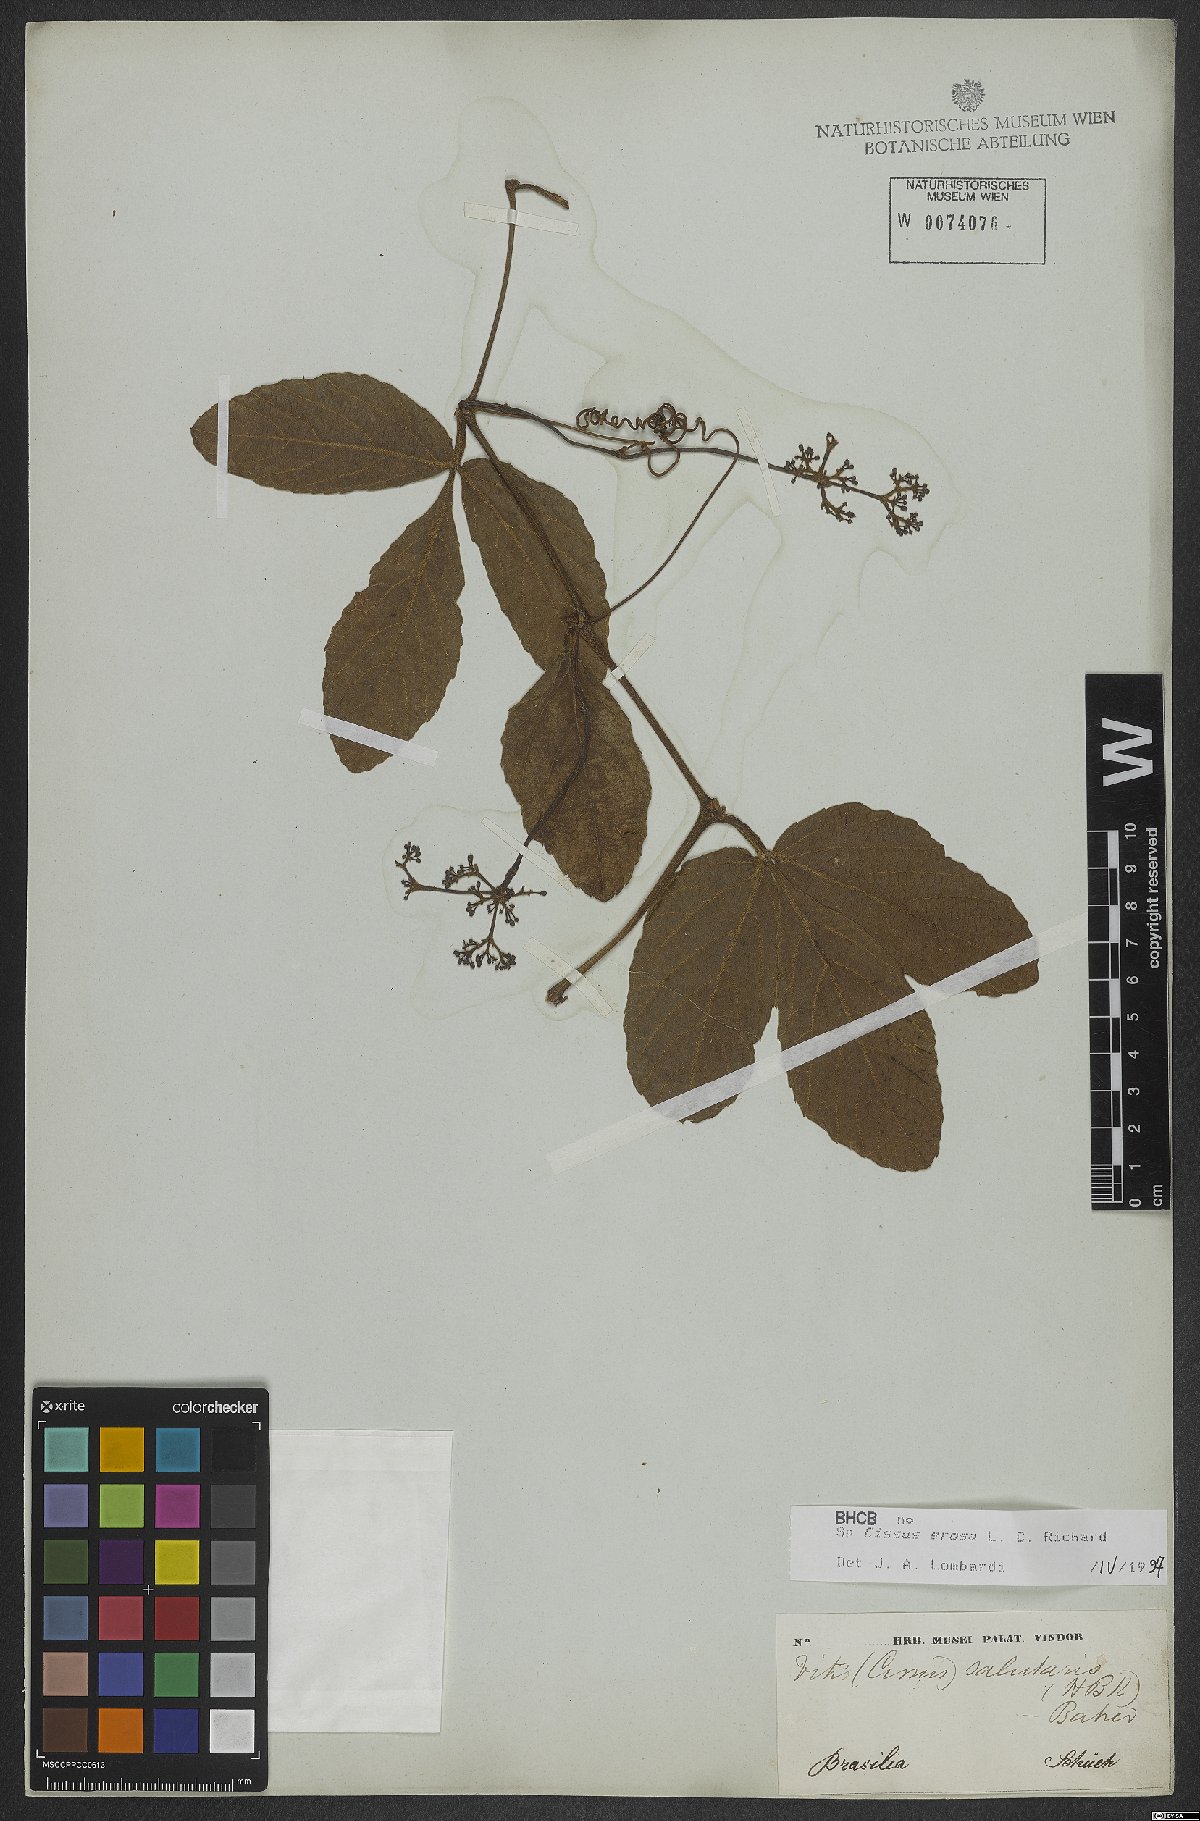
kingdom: Plantae
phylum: Tracheophyta
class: Magnoliopsida
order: Vitales
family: Vitaceae
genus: Cissus
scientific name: Cissus erosa
